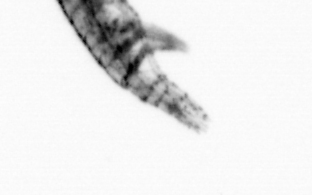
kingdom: Animalia
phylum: Arthropoda
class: Copepoda
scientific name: Copepoda
